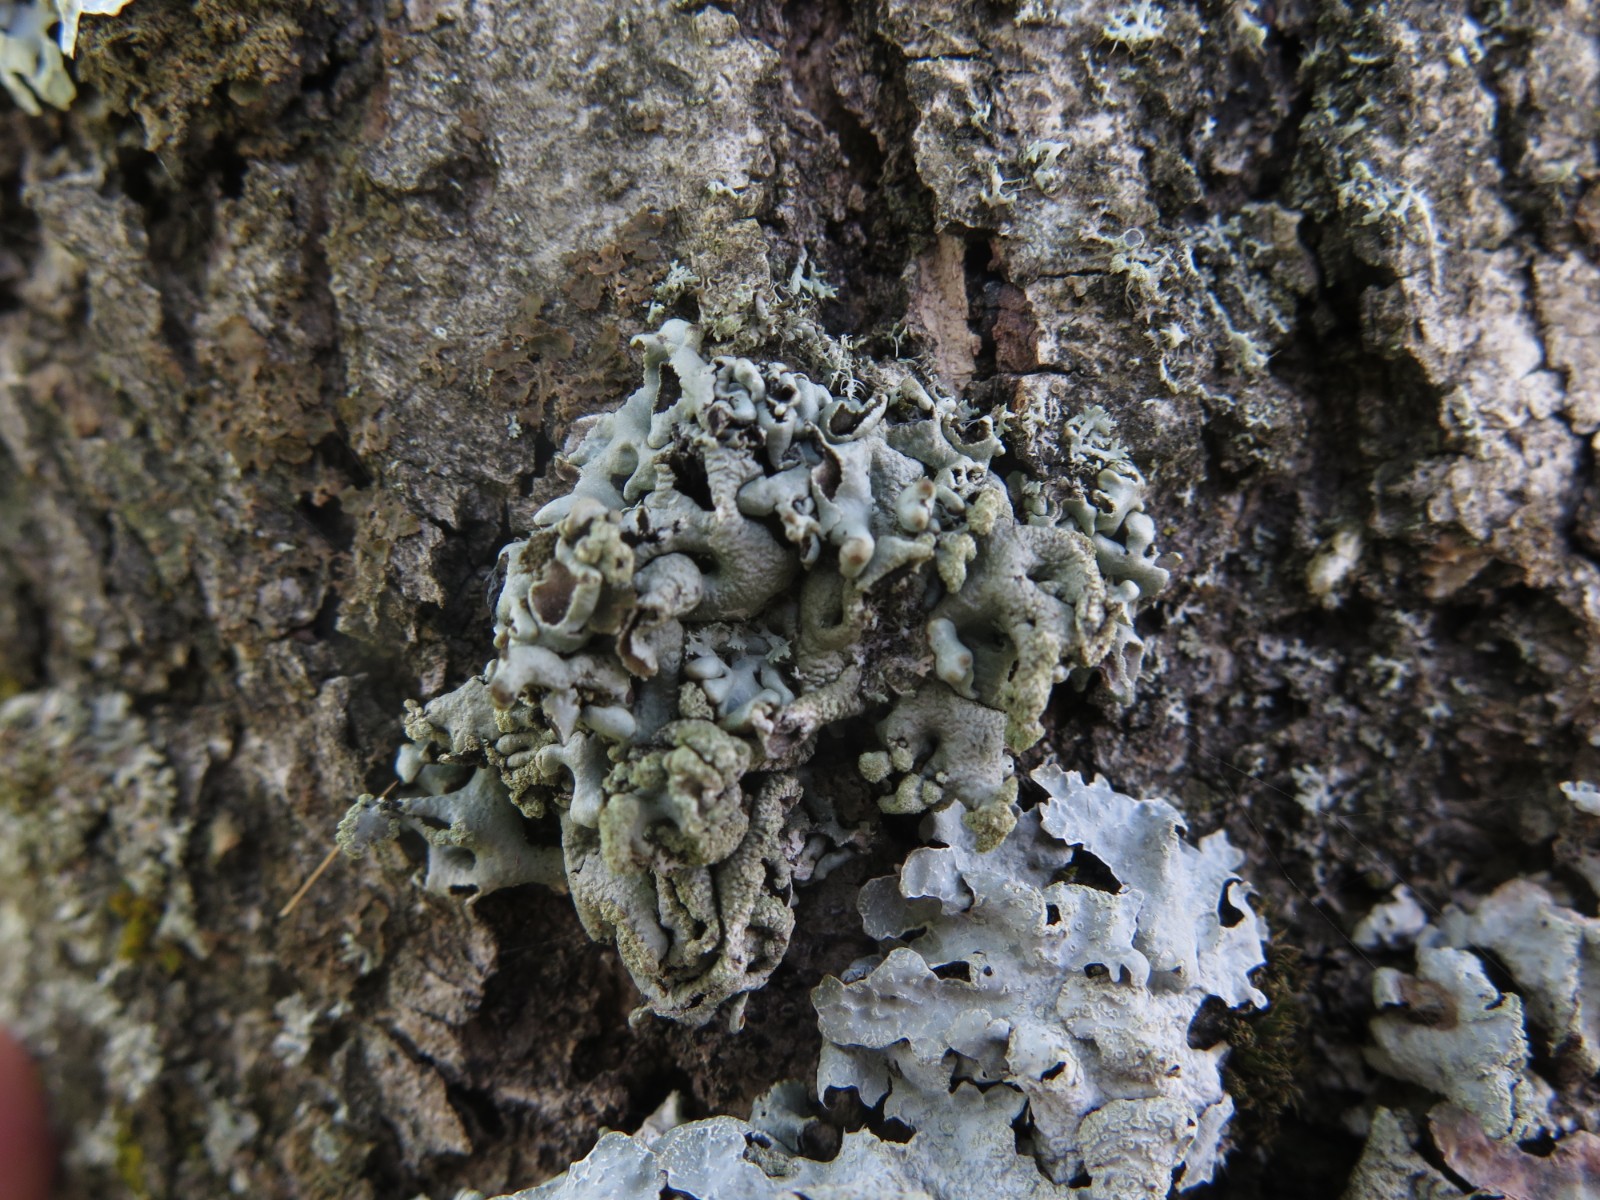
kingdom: Fungi
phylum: Ascomycota
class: Lecanoromycetes
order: Lecanorales
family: Parmeliaceae
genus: Hypogymnia
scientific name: Hypogymnia tubulosa
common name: finger-kvistlav
